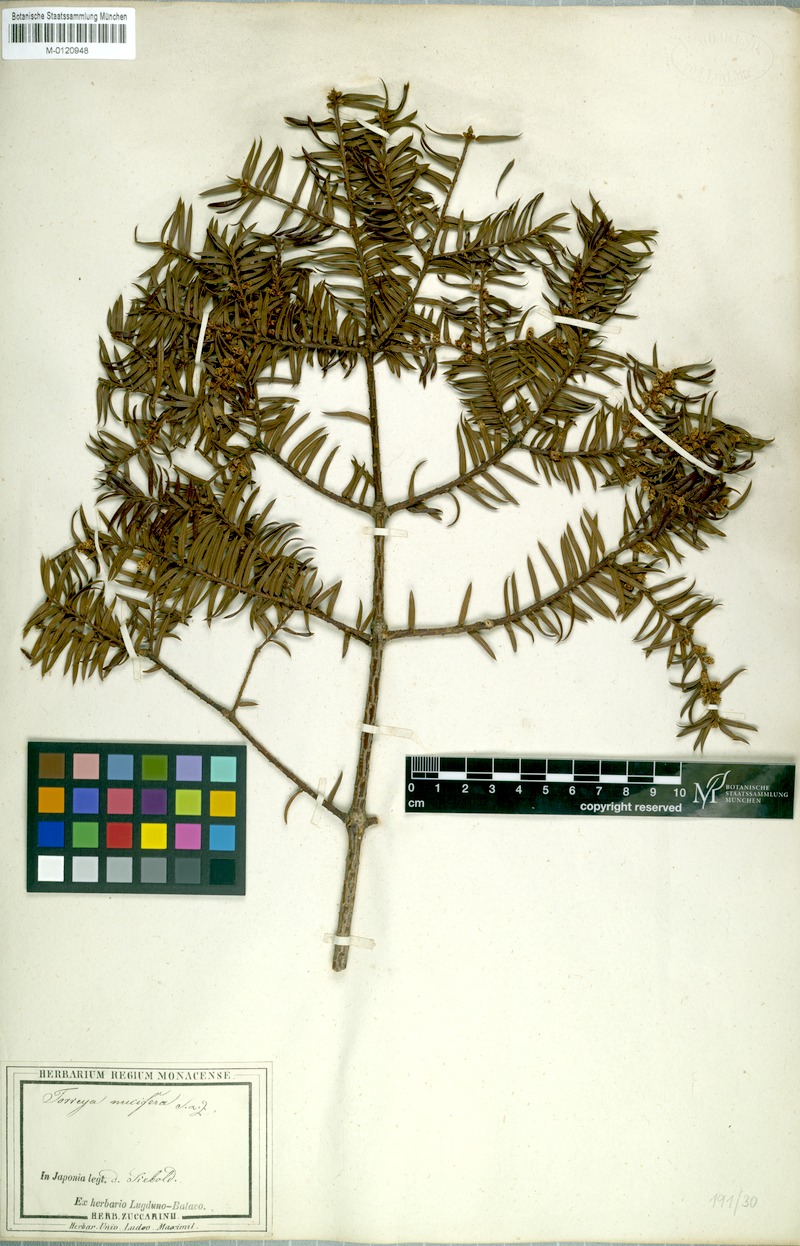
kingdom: Plantae
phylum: Tracheophyta
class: Pinopsida
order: Pinales
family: Taxaceae
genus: Torreya
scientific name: Torreya nucifera
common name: Japanese nutmeg tree
